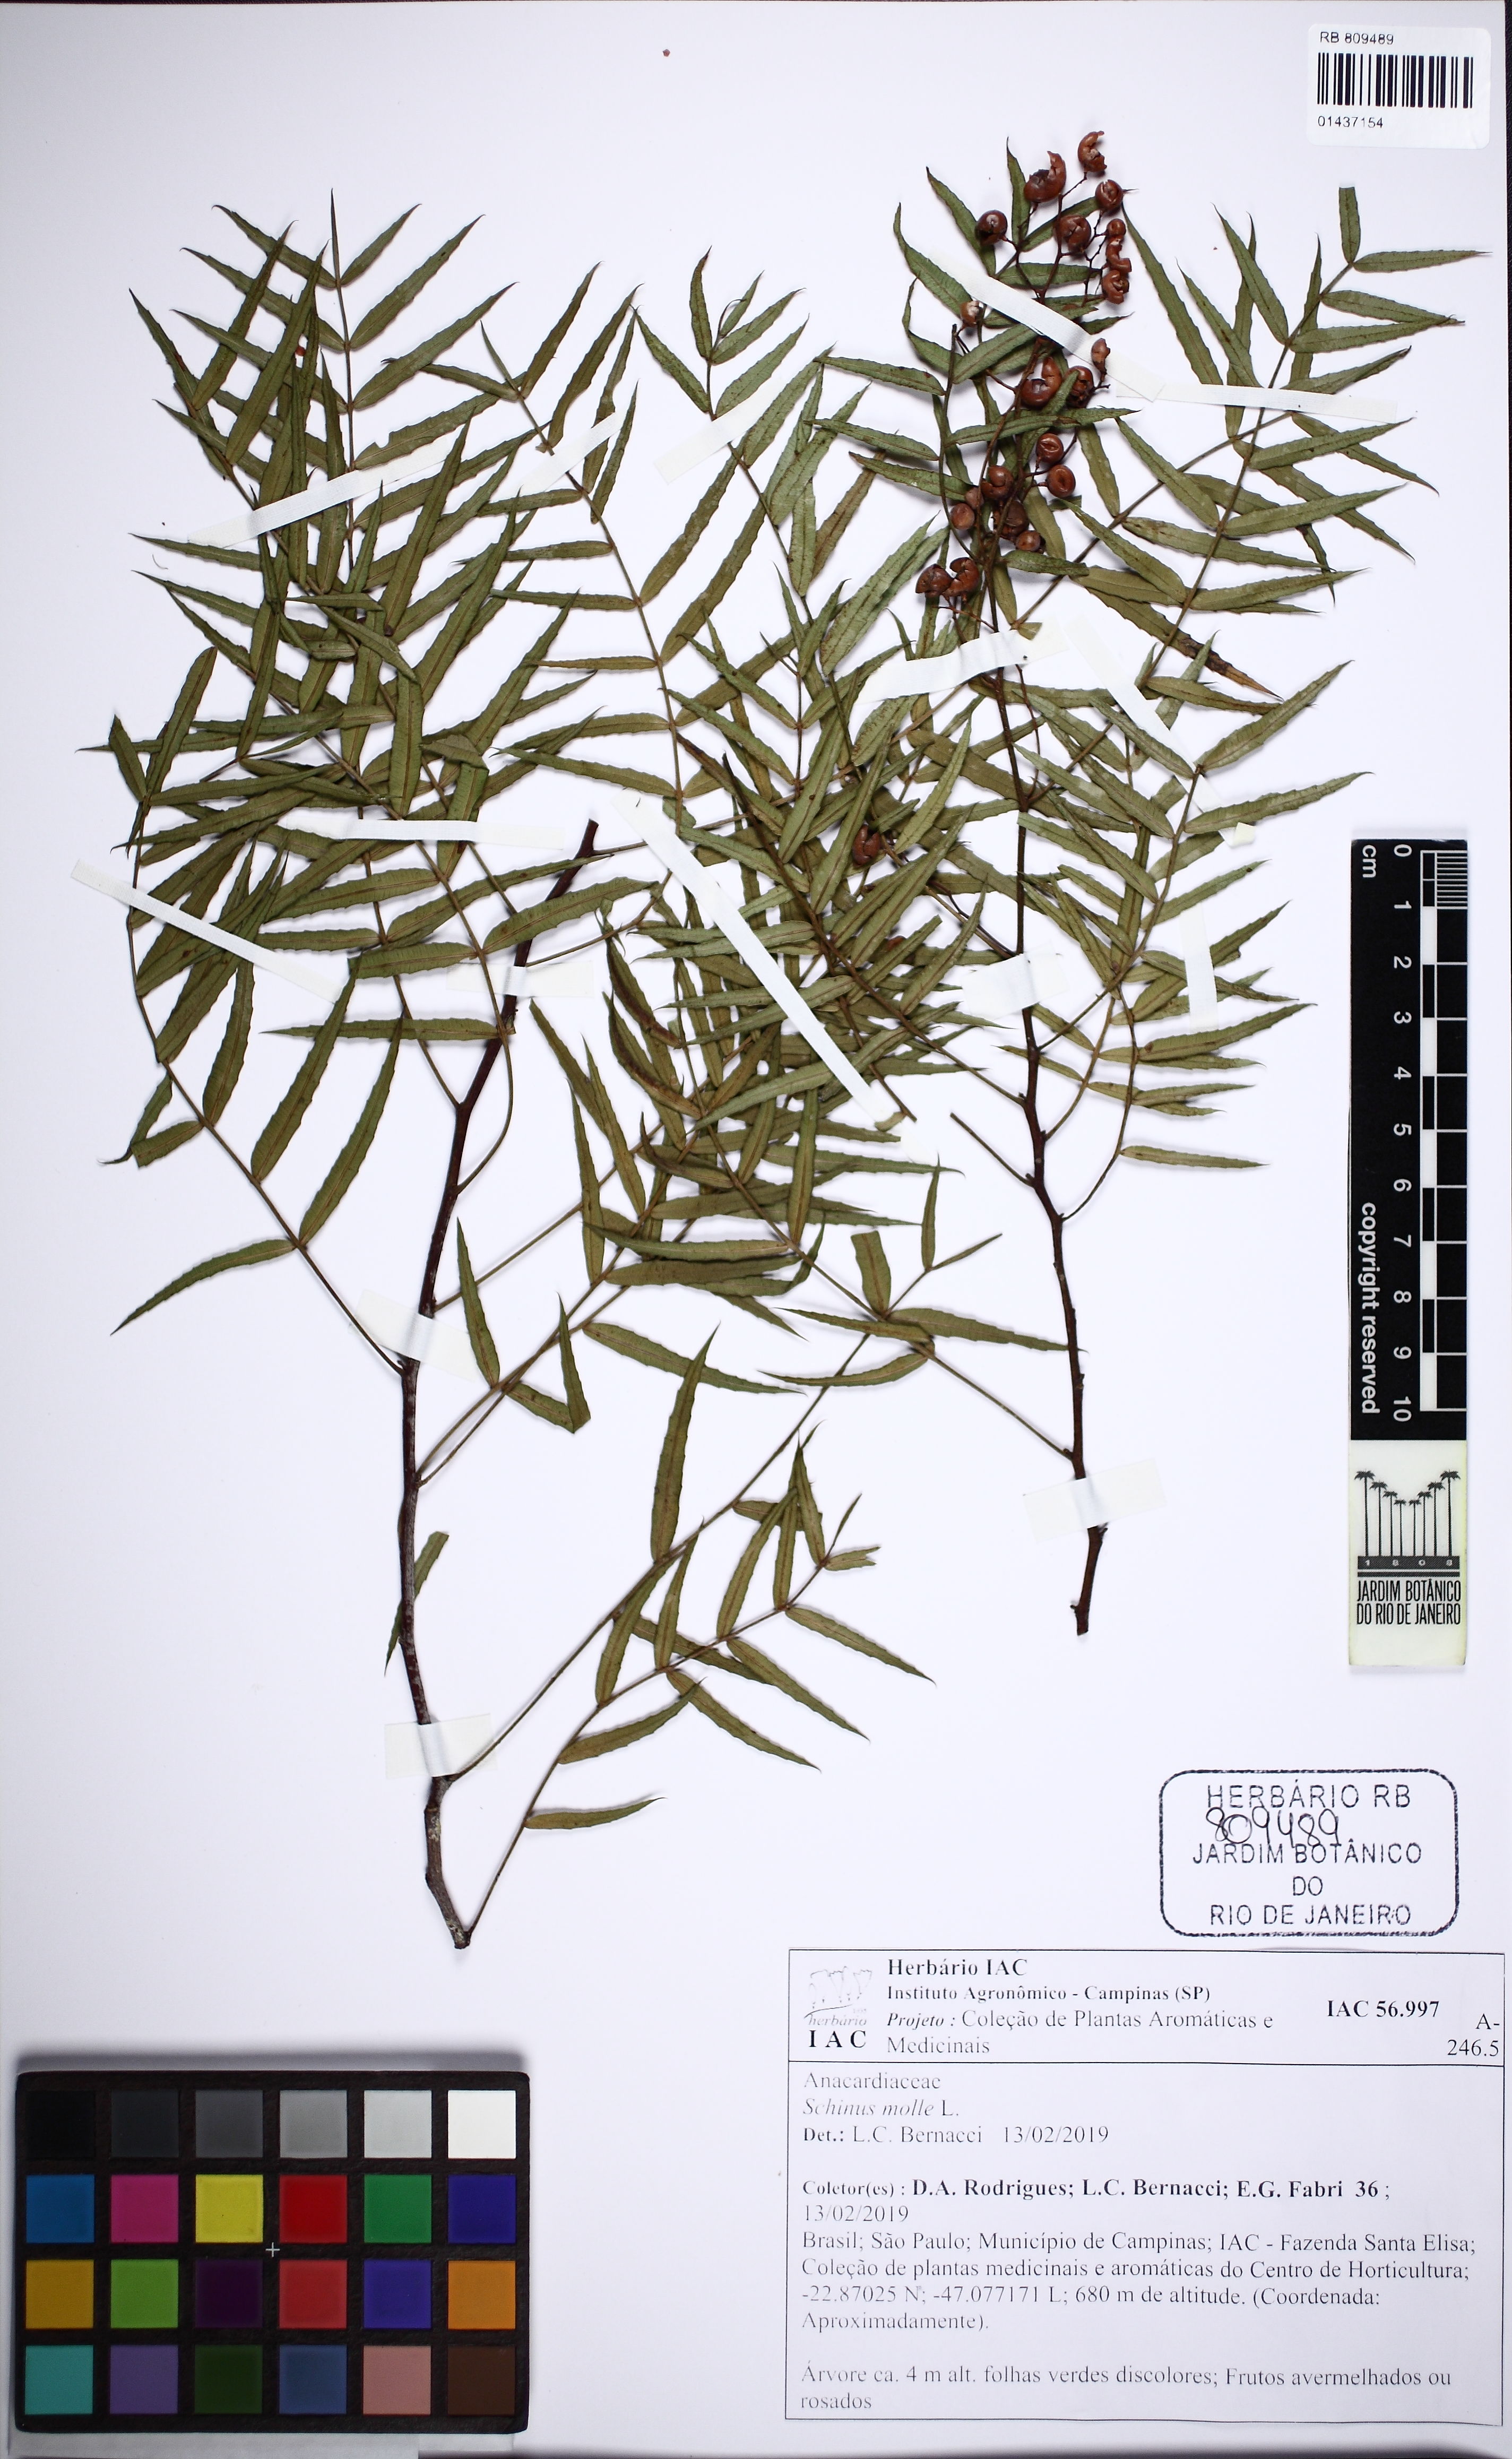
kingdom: Plantae
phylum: Tracheophyta
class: Magnoliopsida
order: Sapindales
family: Anacardiaceae
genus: Schinus
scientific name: Schinus molle
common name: Peruvian peppertree
